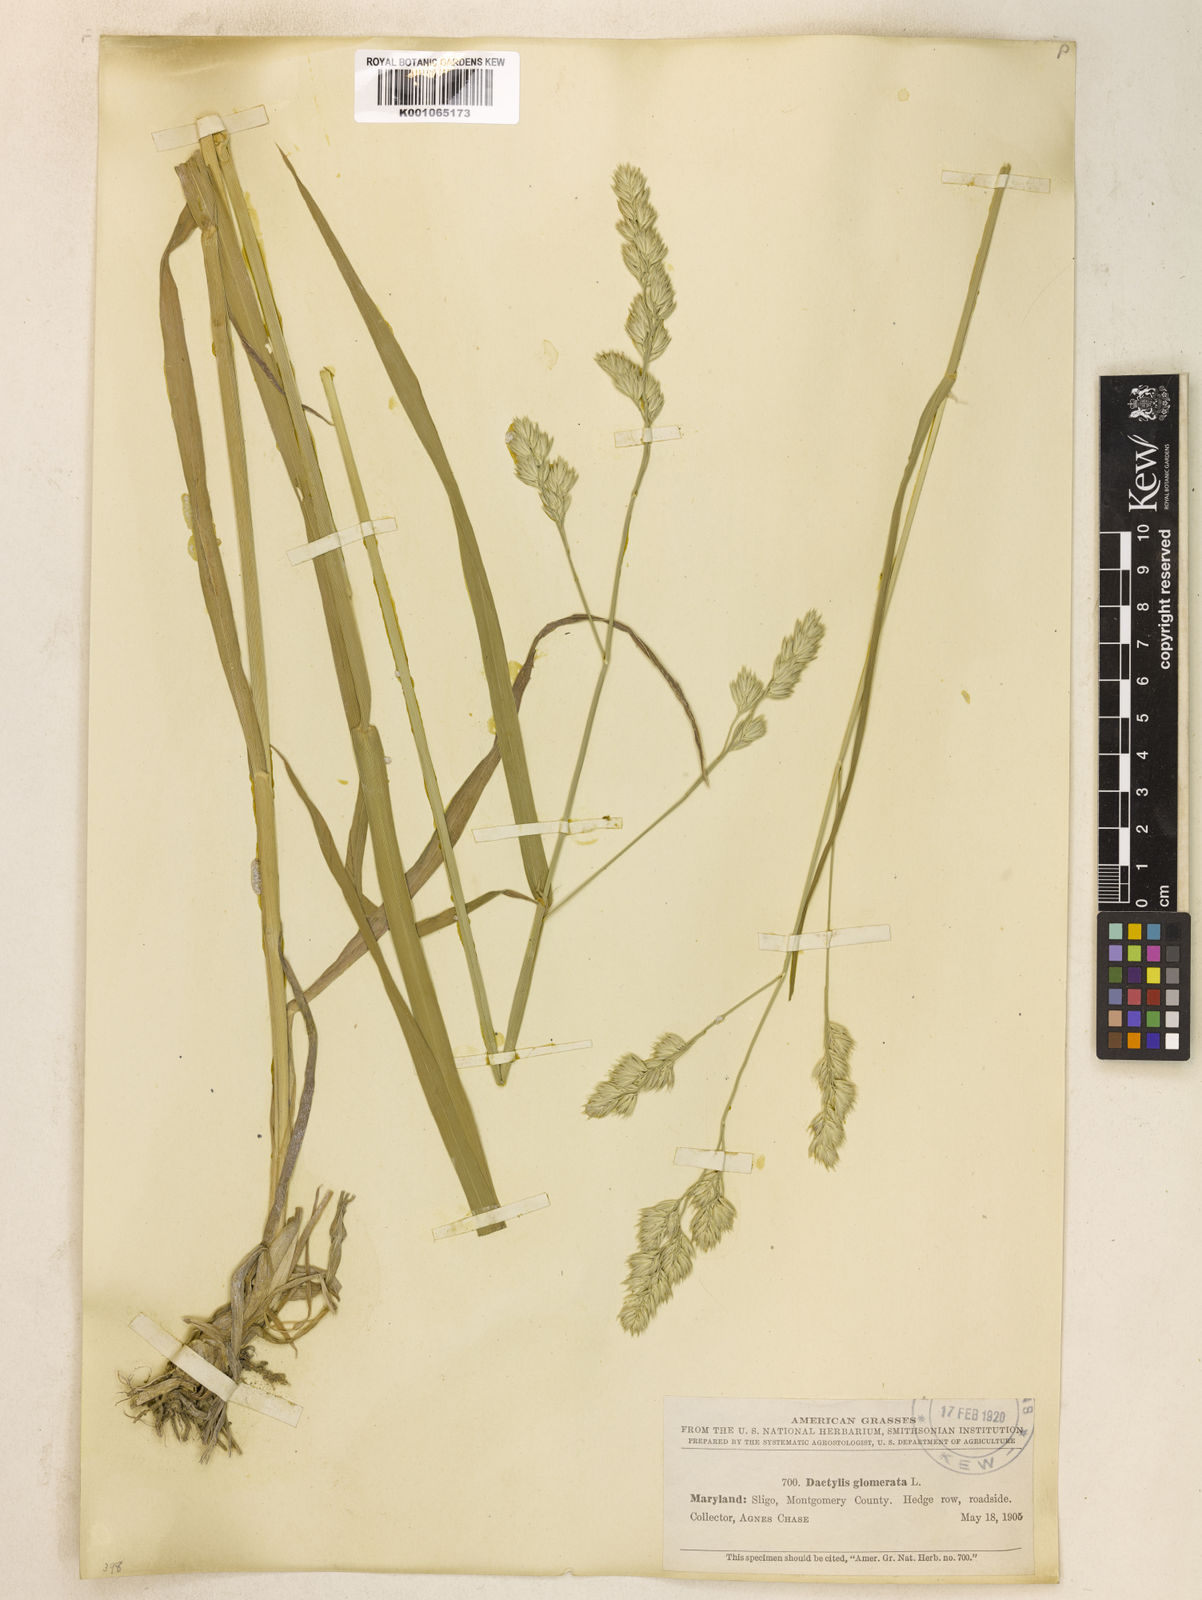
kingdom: Plantae
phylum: Tracheophyta
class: Liliopsida
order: Poales
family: Poaceae
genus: Dactylis
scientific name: Dactylis glomerata
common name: Orchardgrass
